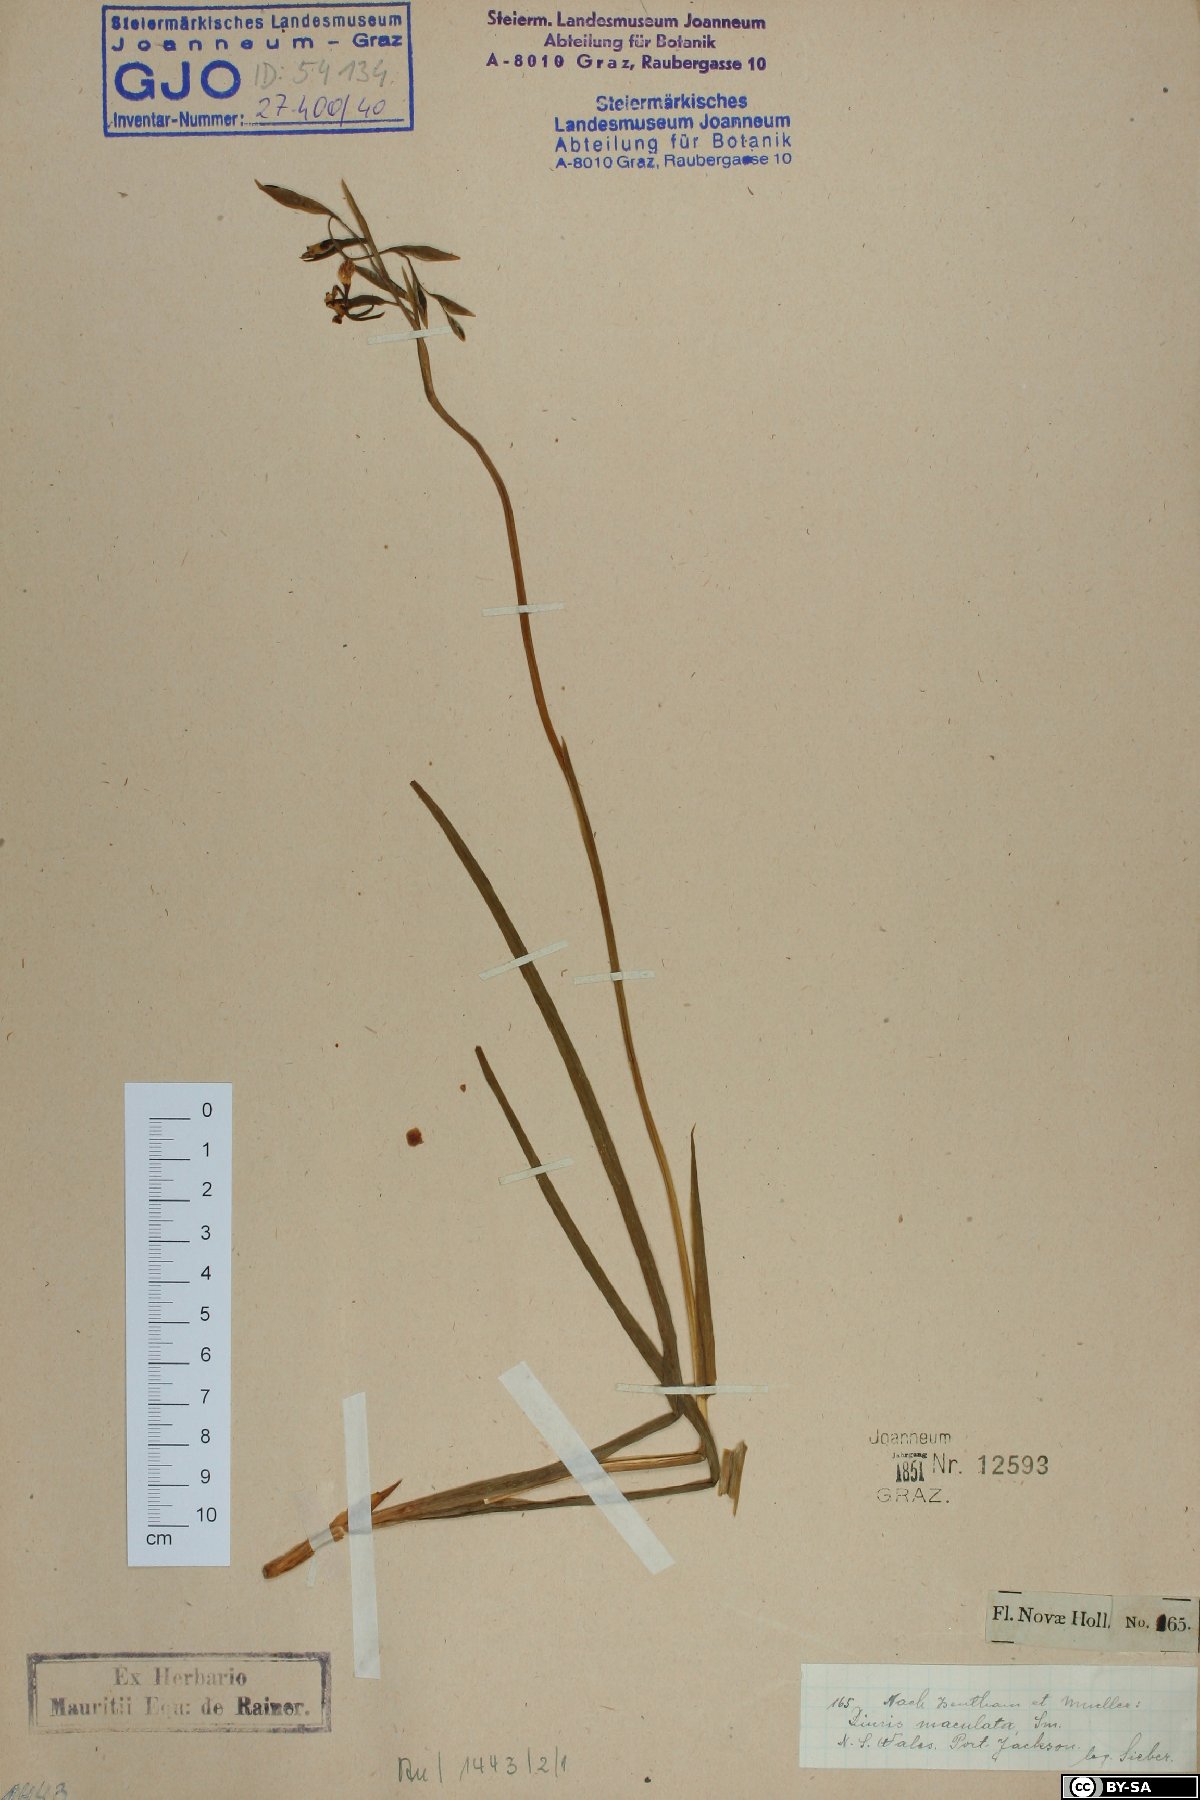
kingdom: Plantae
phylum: Tracheophyta
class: Liliopsida
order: Asparagales
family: Orchidaceae
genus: Diuris
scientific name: Diuris maculata
